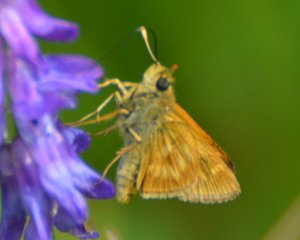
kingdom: Animalia
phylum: Arthropoda
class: Insecta
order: Lepidoptera
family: Hesperiidae
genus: Polites
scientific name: Polites
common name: Long Dash Skipper
